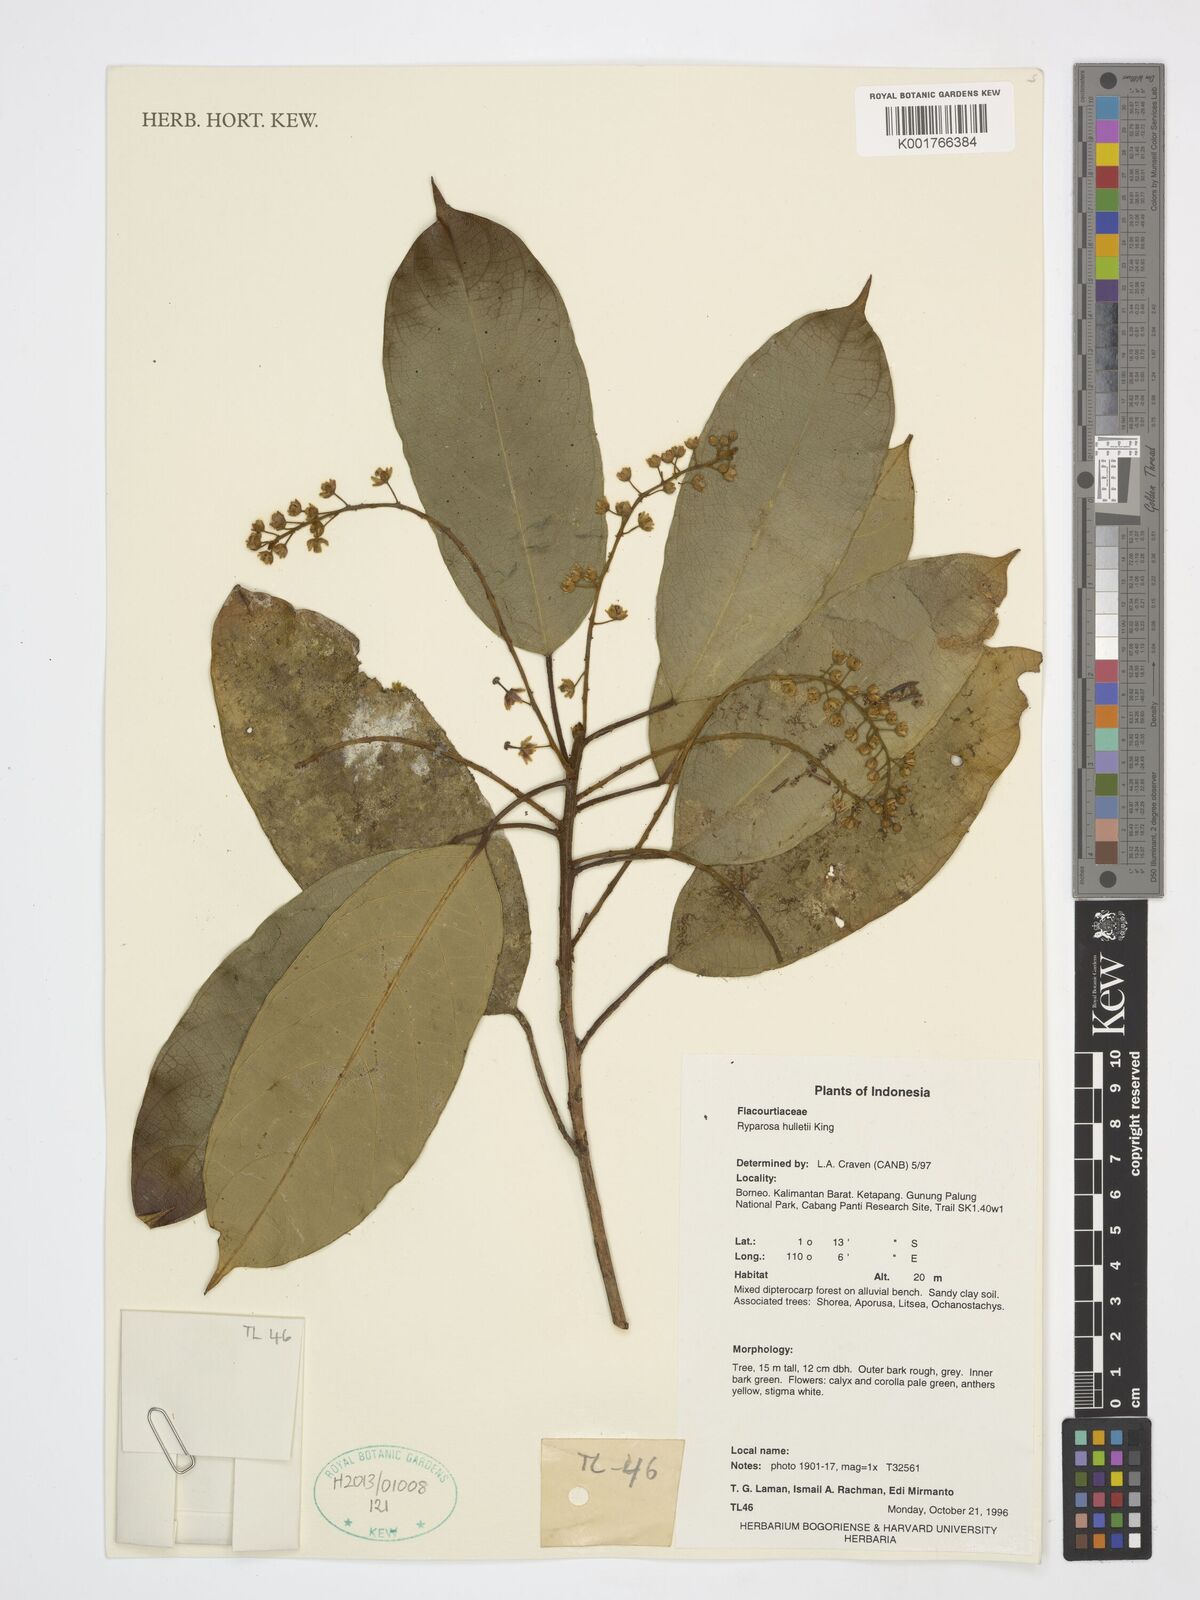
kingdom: Plantae
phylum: Tracheophyta
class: Magnoliopsida
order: Malpighiales
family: Achariaceae
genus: Ryparosa
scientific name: Ryparosa hullettii
